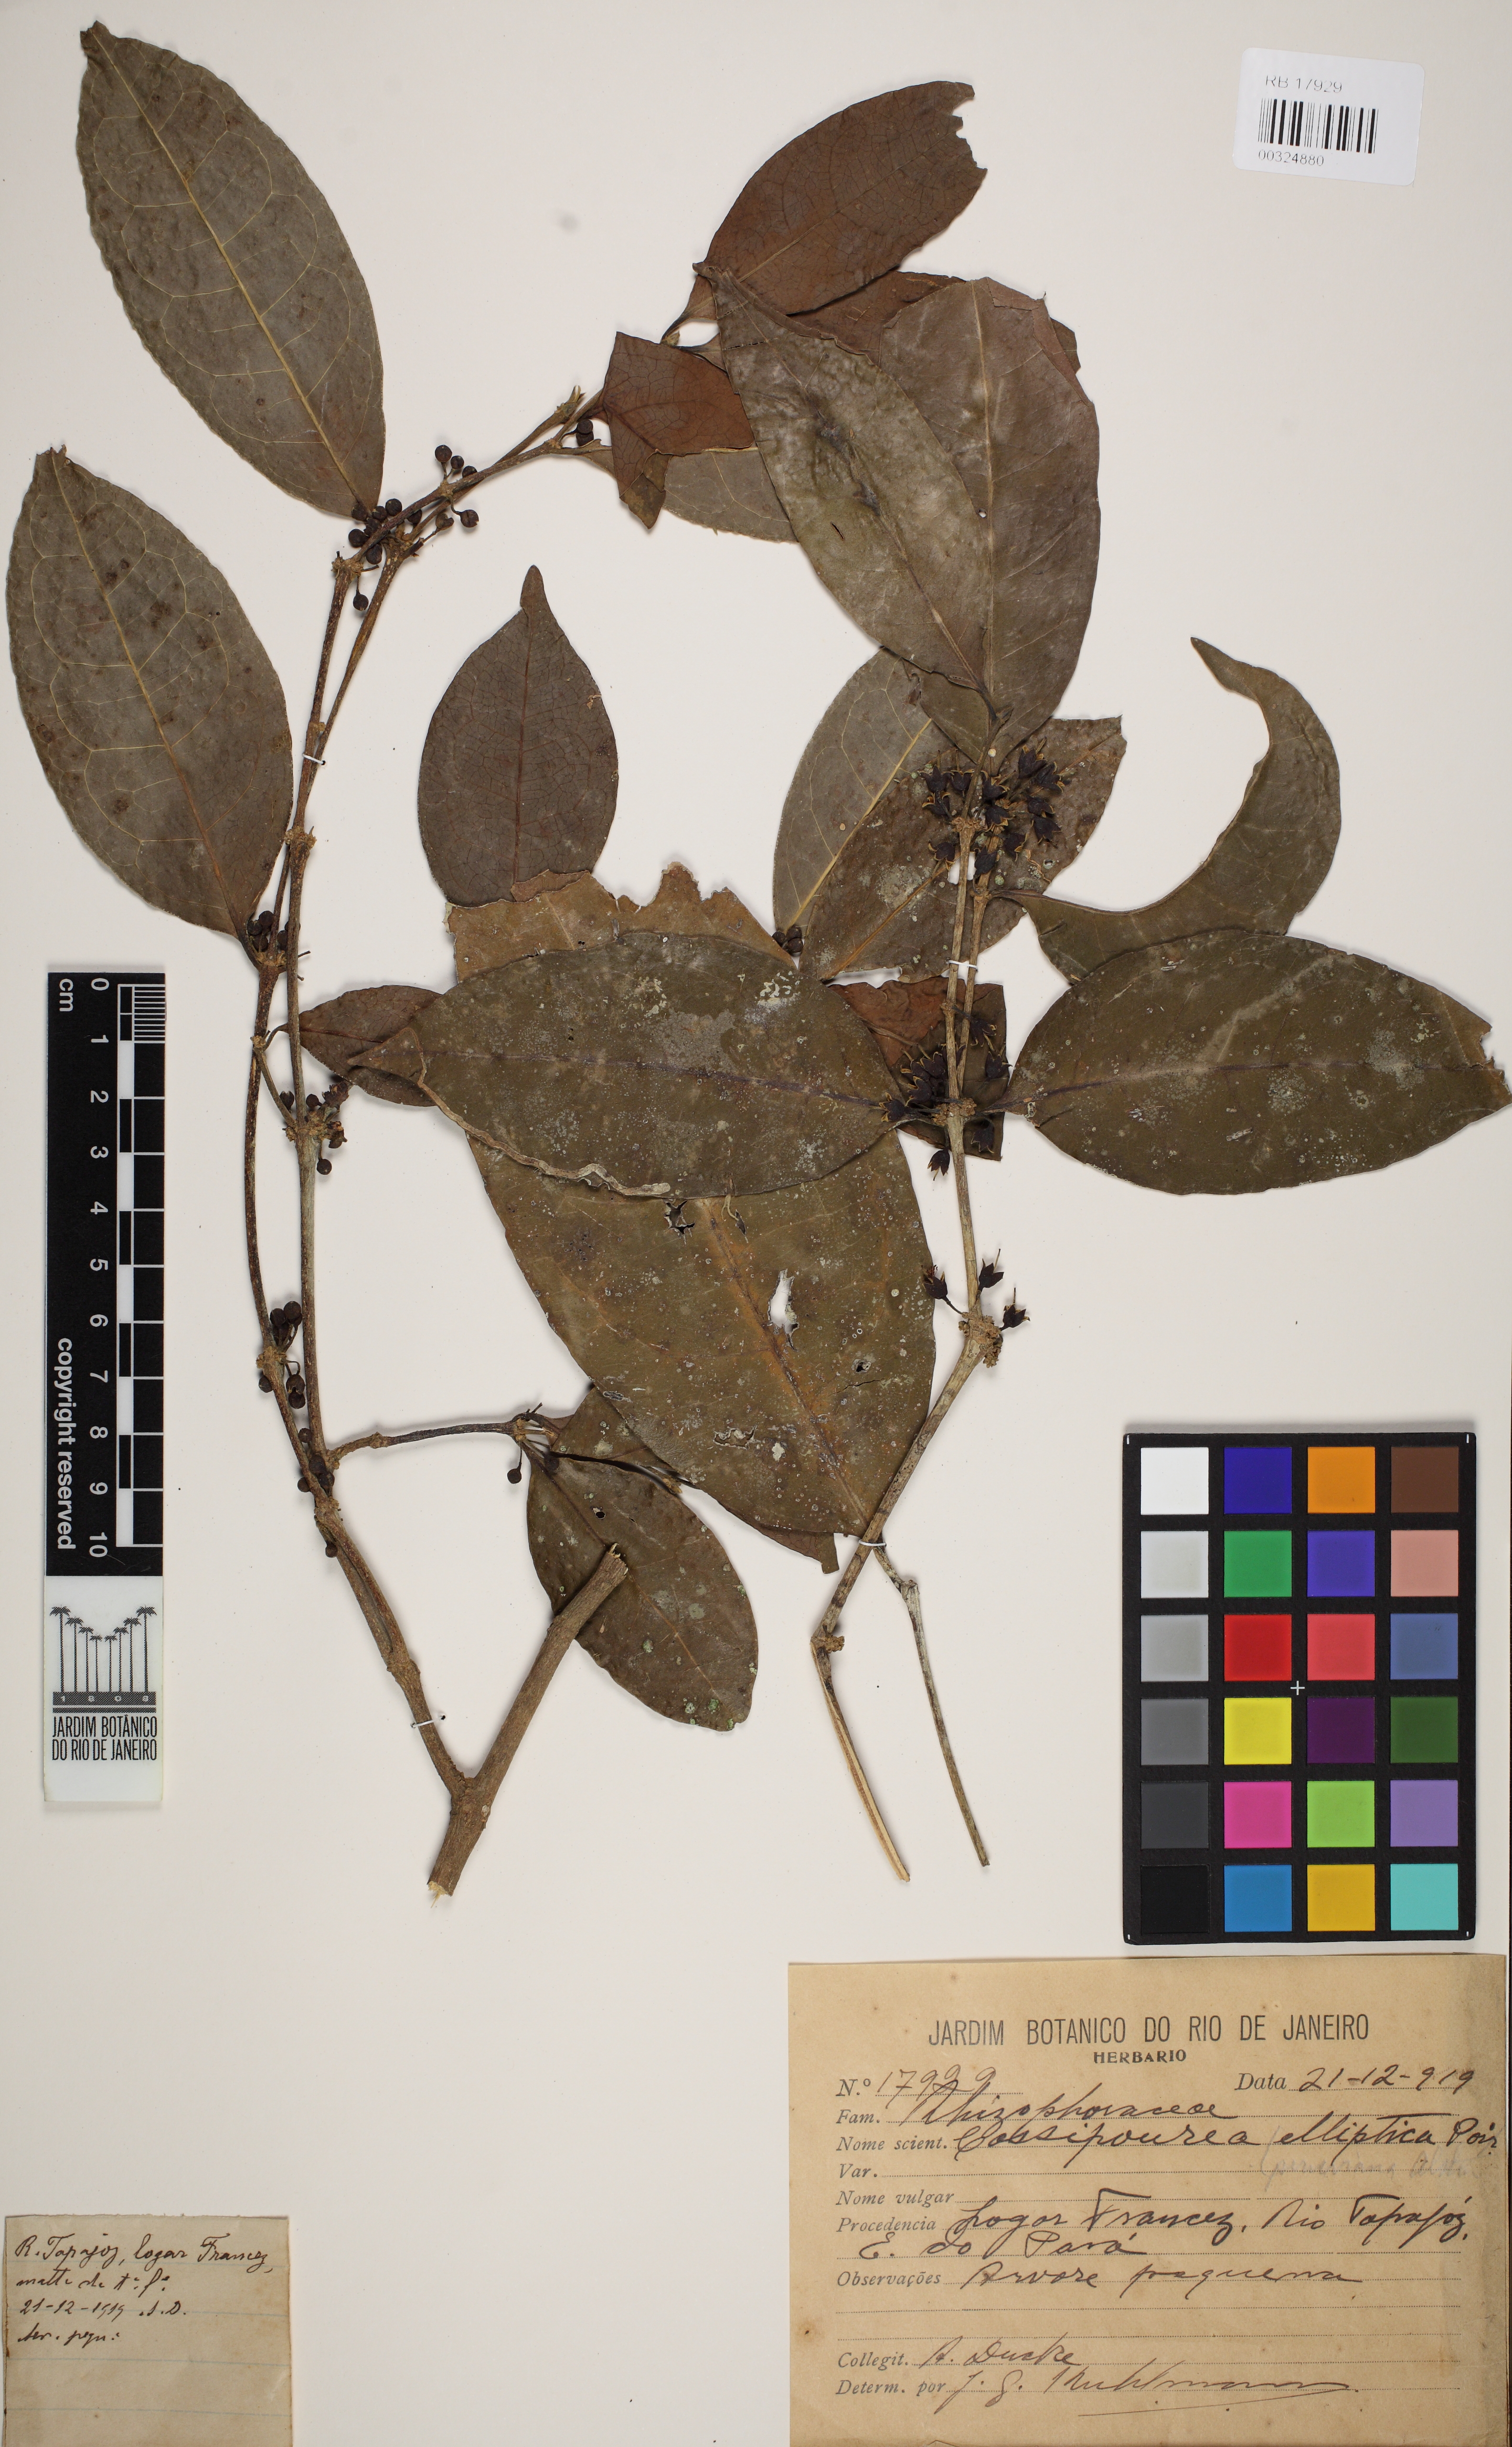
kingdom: Plantae
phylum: Tracheophyta
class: Magnoliopsida
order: Malpighiales
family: Rhizophoraceae
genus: Cassipourea
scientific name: Cassipourea elliptica
